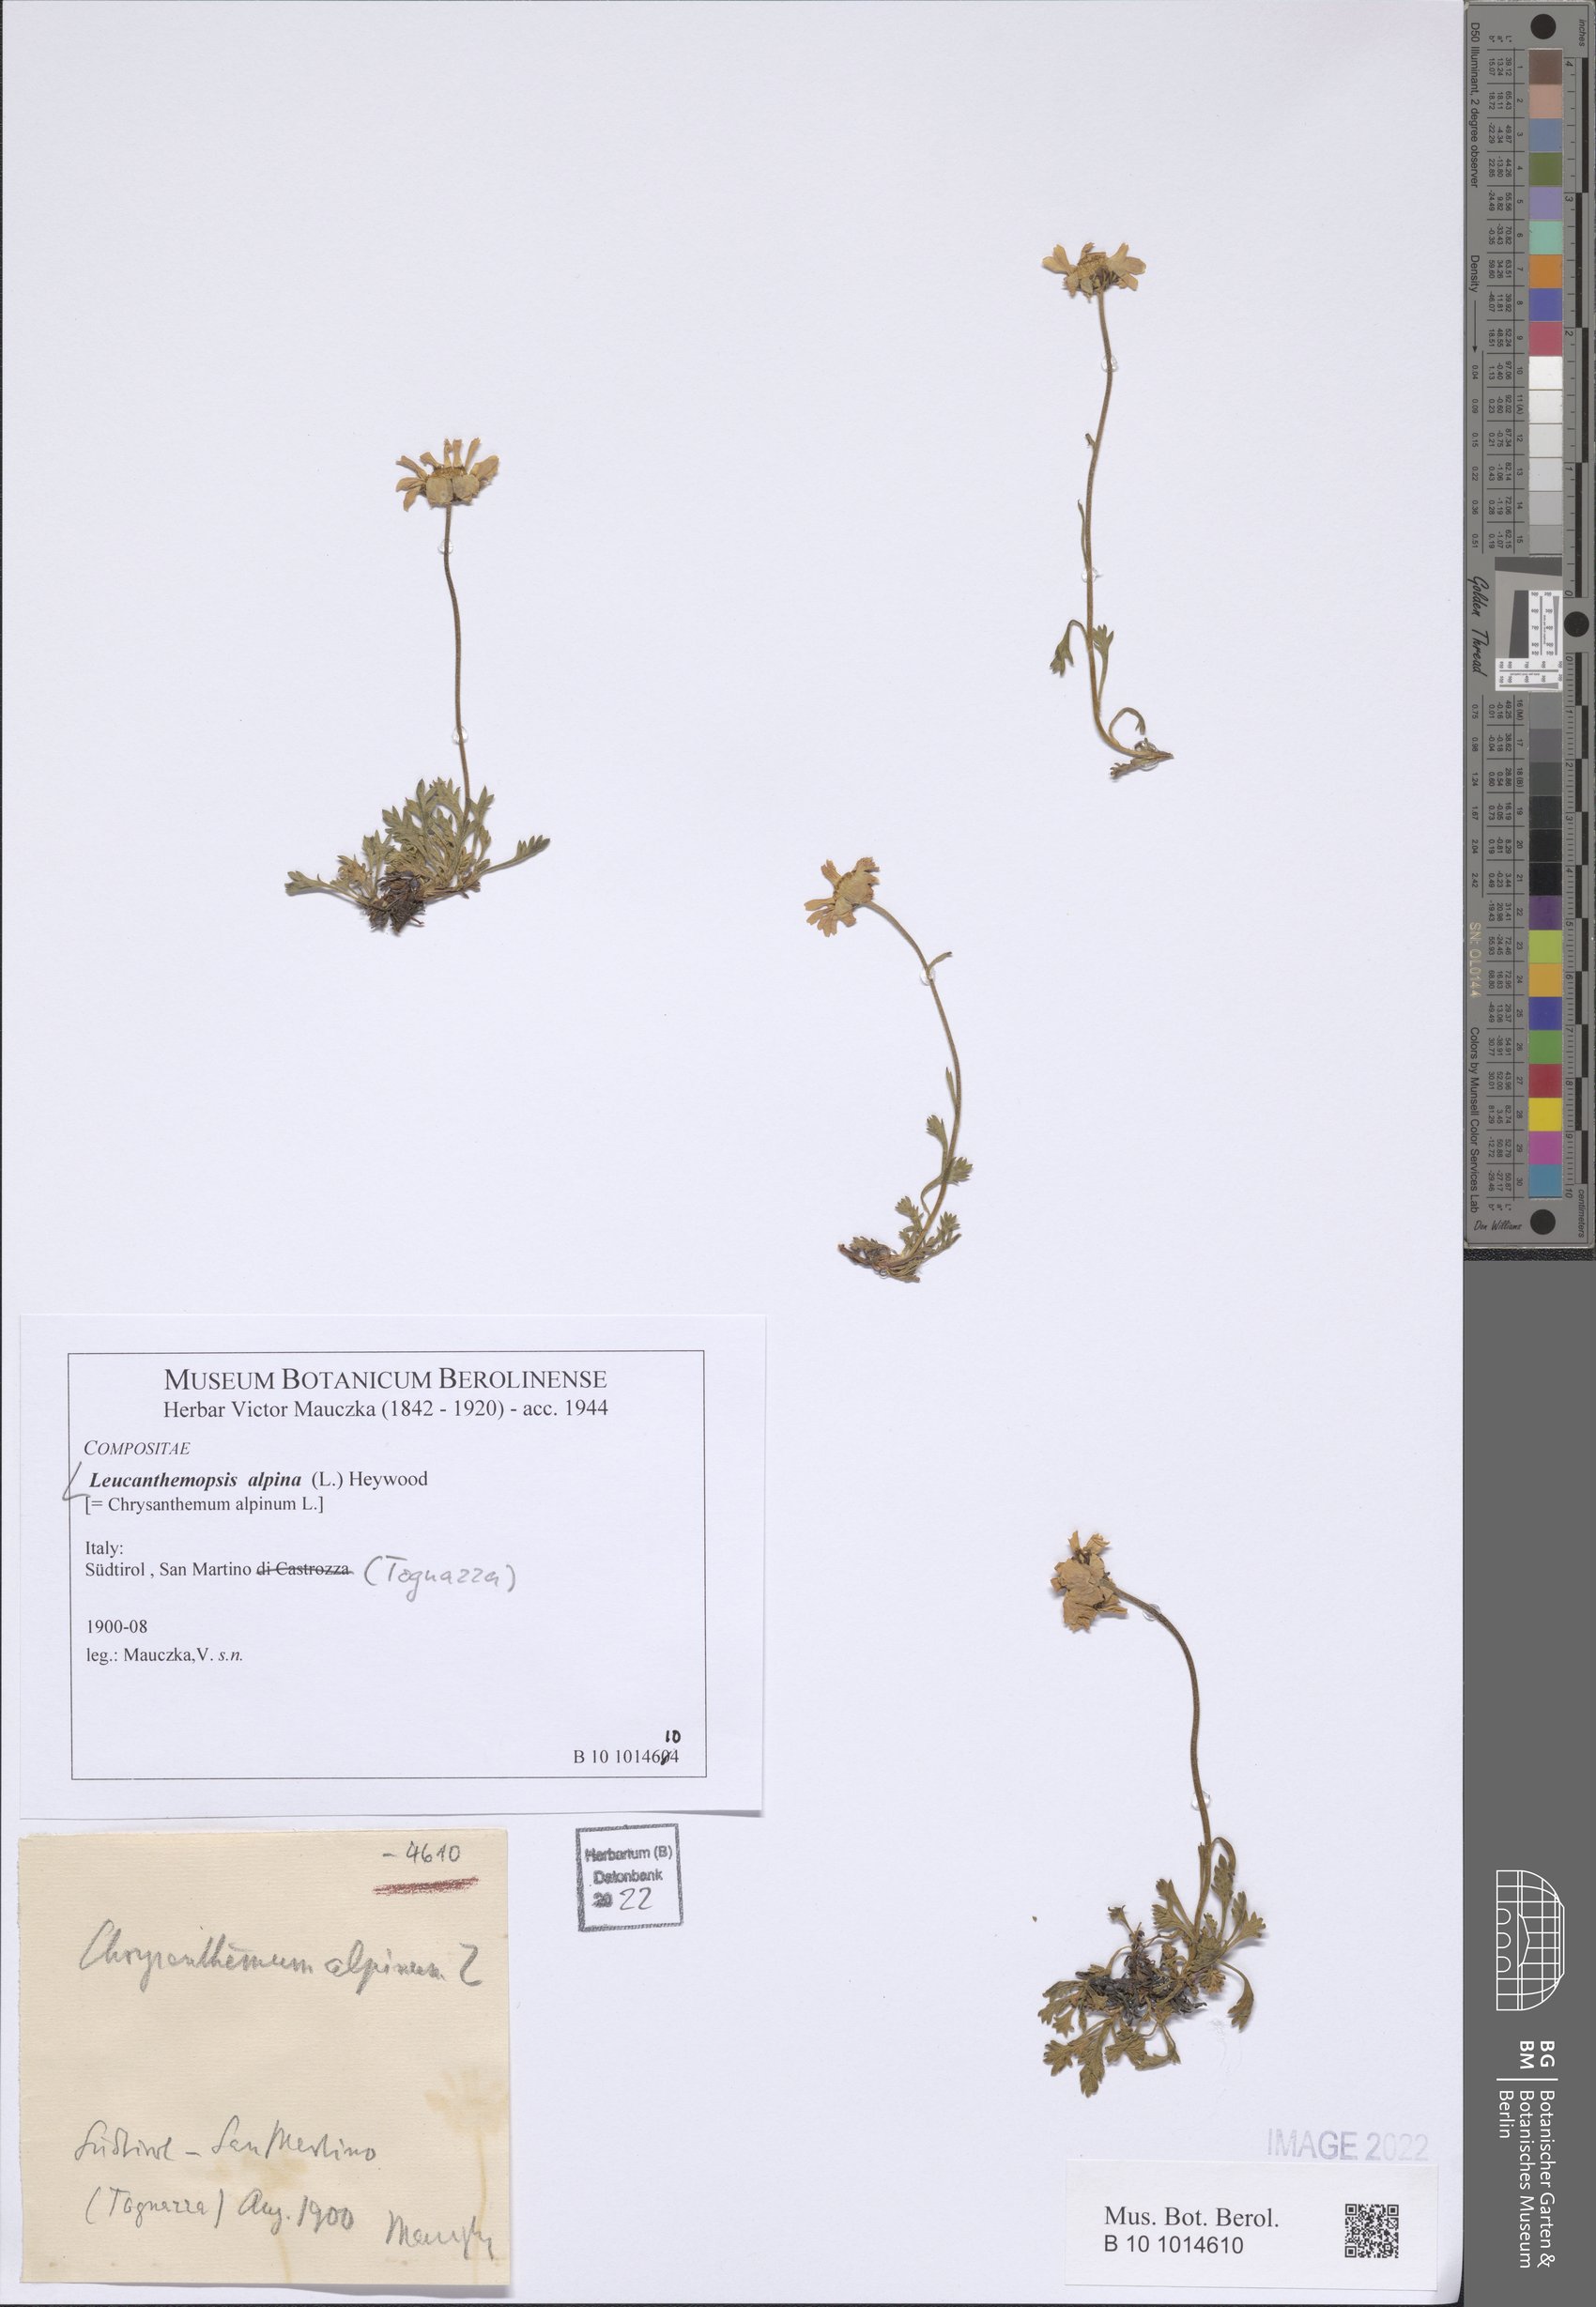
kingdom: Plantae
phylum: Tracheophyta
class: Magnoliopsida
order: Asterales
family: Asteraceae
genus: Leucanthemopsis
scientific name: Leucanthemopsis alpina
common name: Alpine moon daisy
